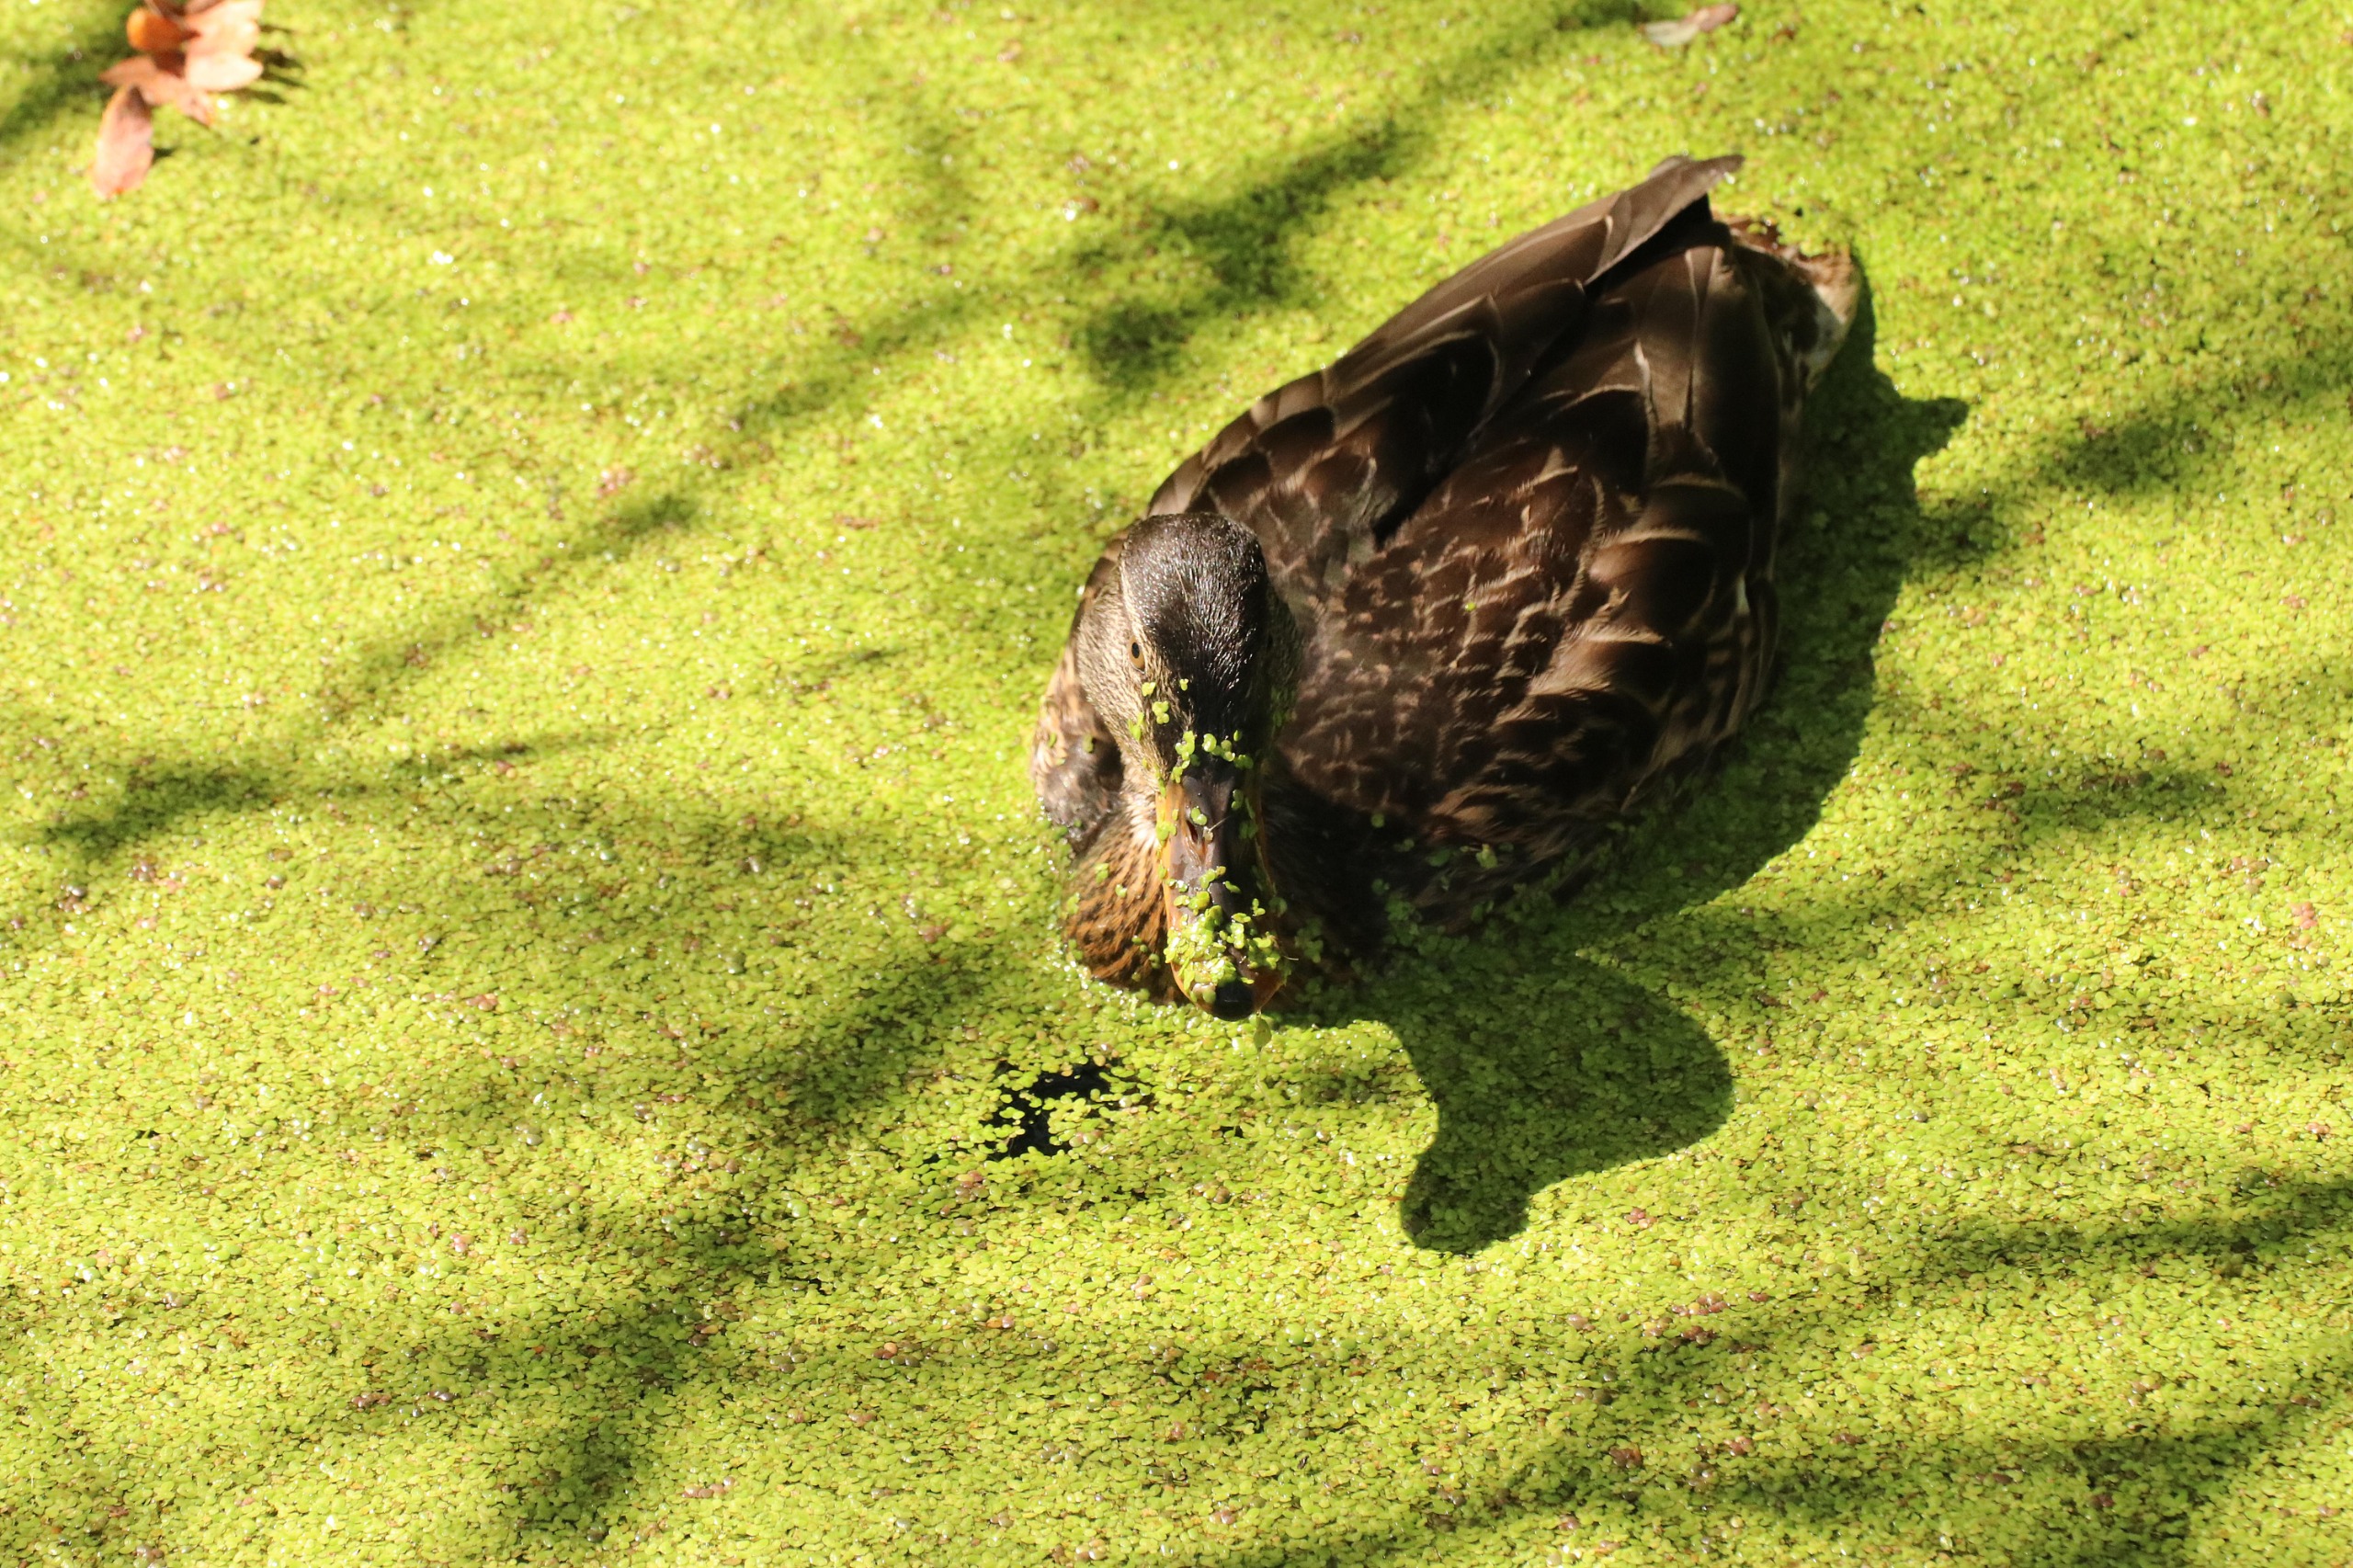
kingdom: Animalia
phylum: Chordata
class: Aves
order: Anseriformes
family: Anatidae
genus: Anas
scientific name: Anas platyrhynchos
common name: Gråand
